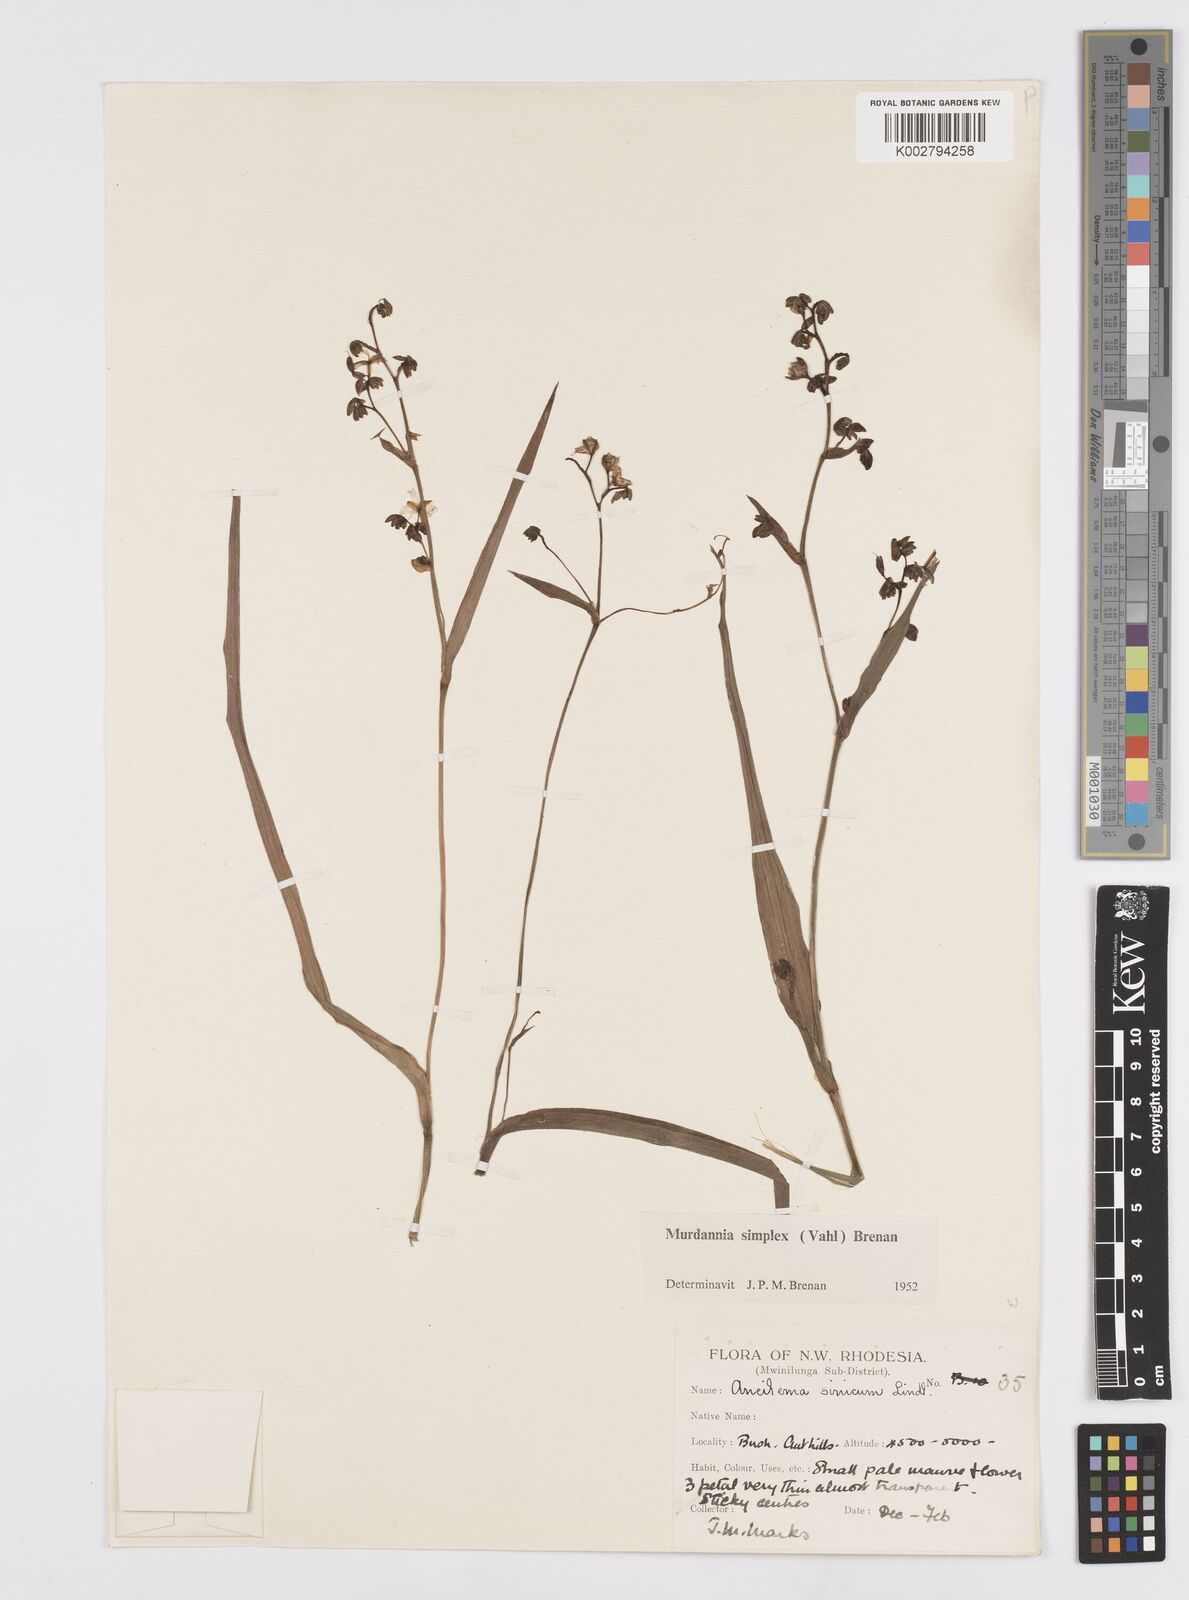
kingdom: Plantae
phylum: Tracheophyta
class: Liliopsida
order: Commelinales
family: Commelinaceae
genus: Murdannia
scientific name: Murdannia simplex
